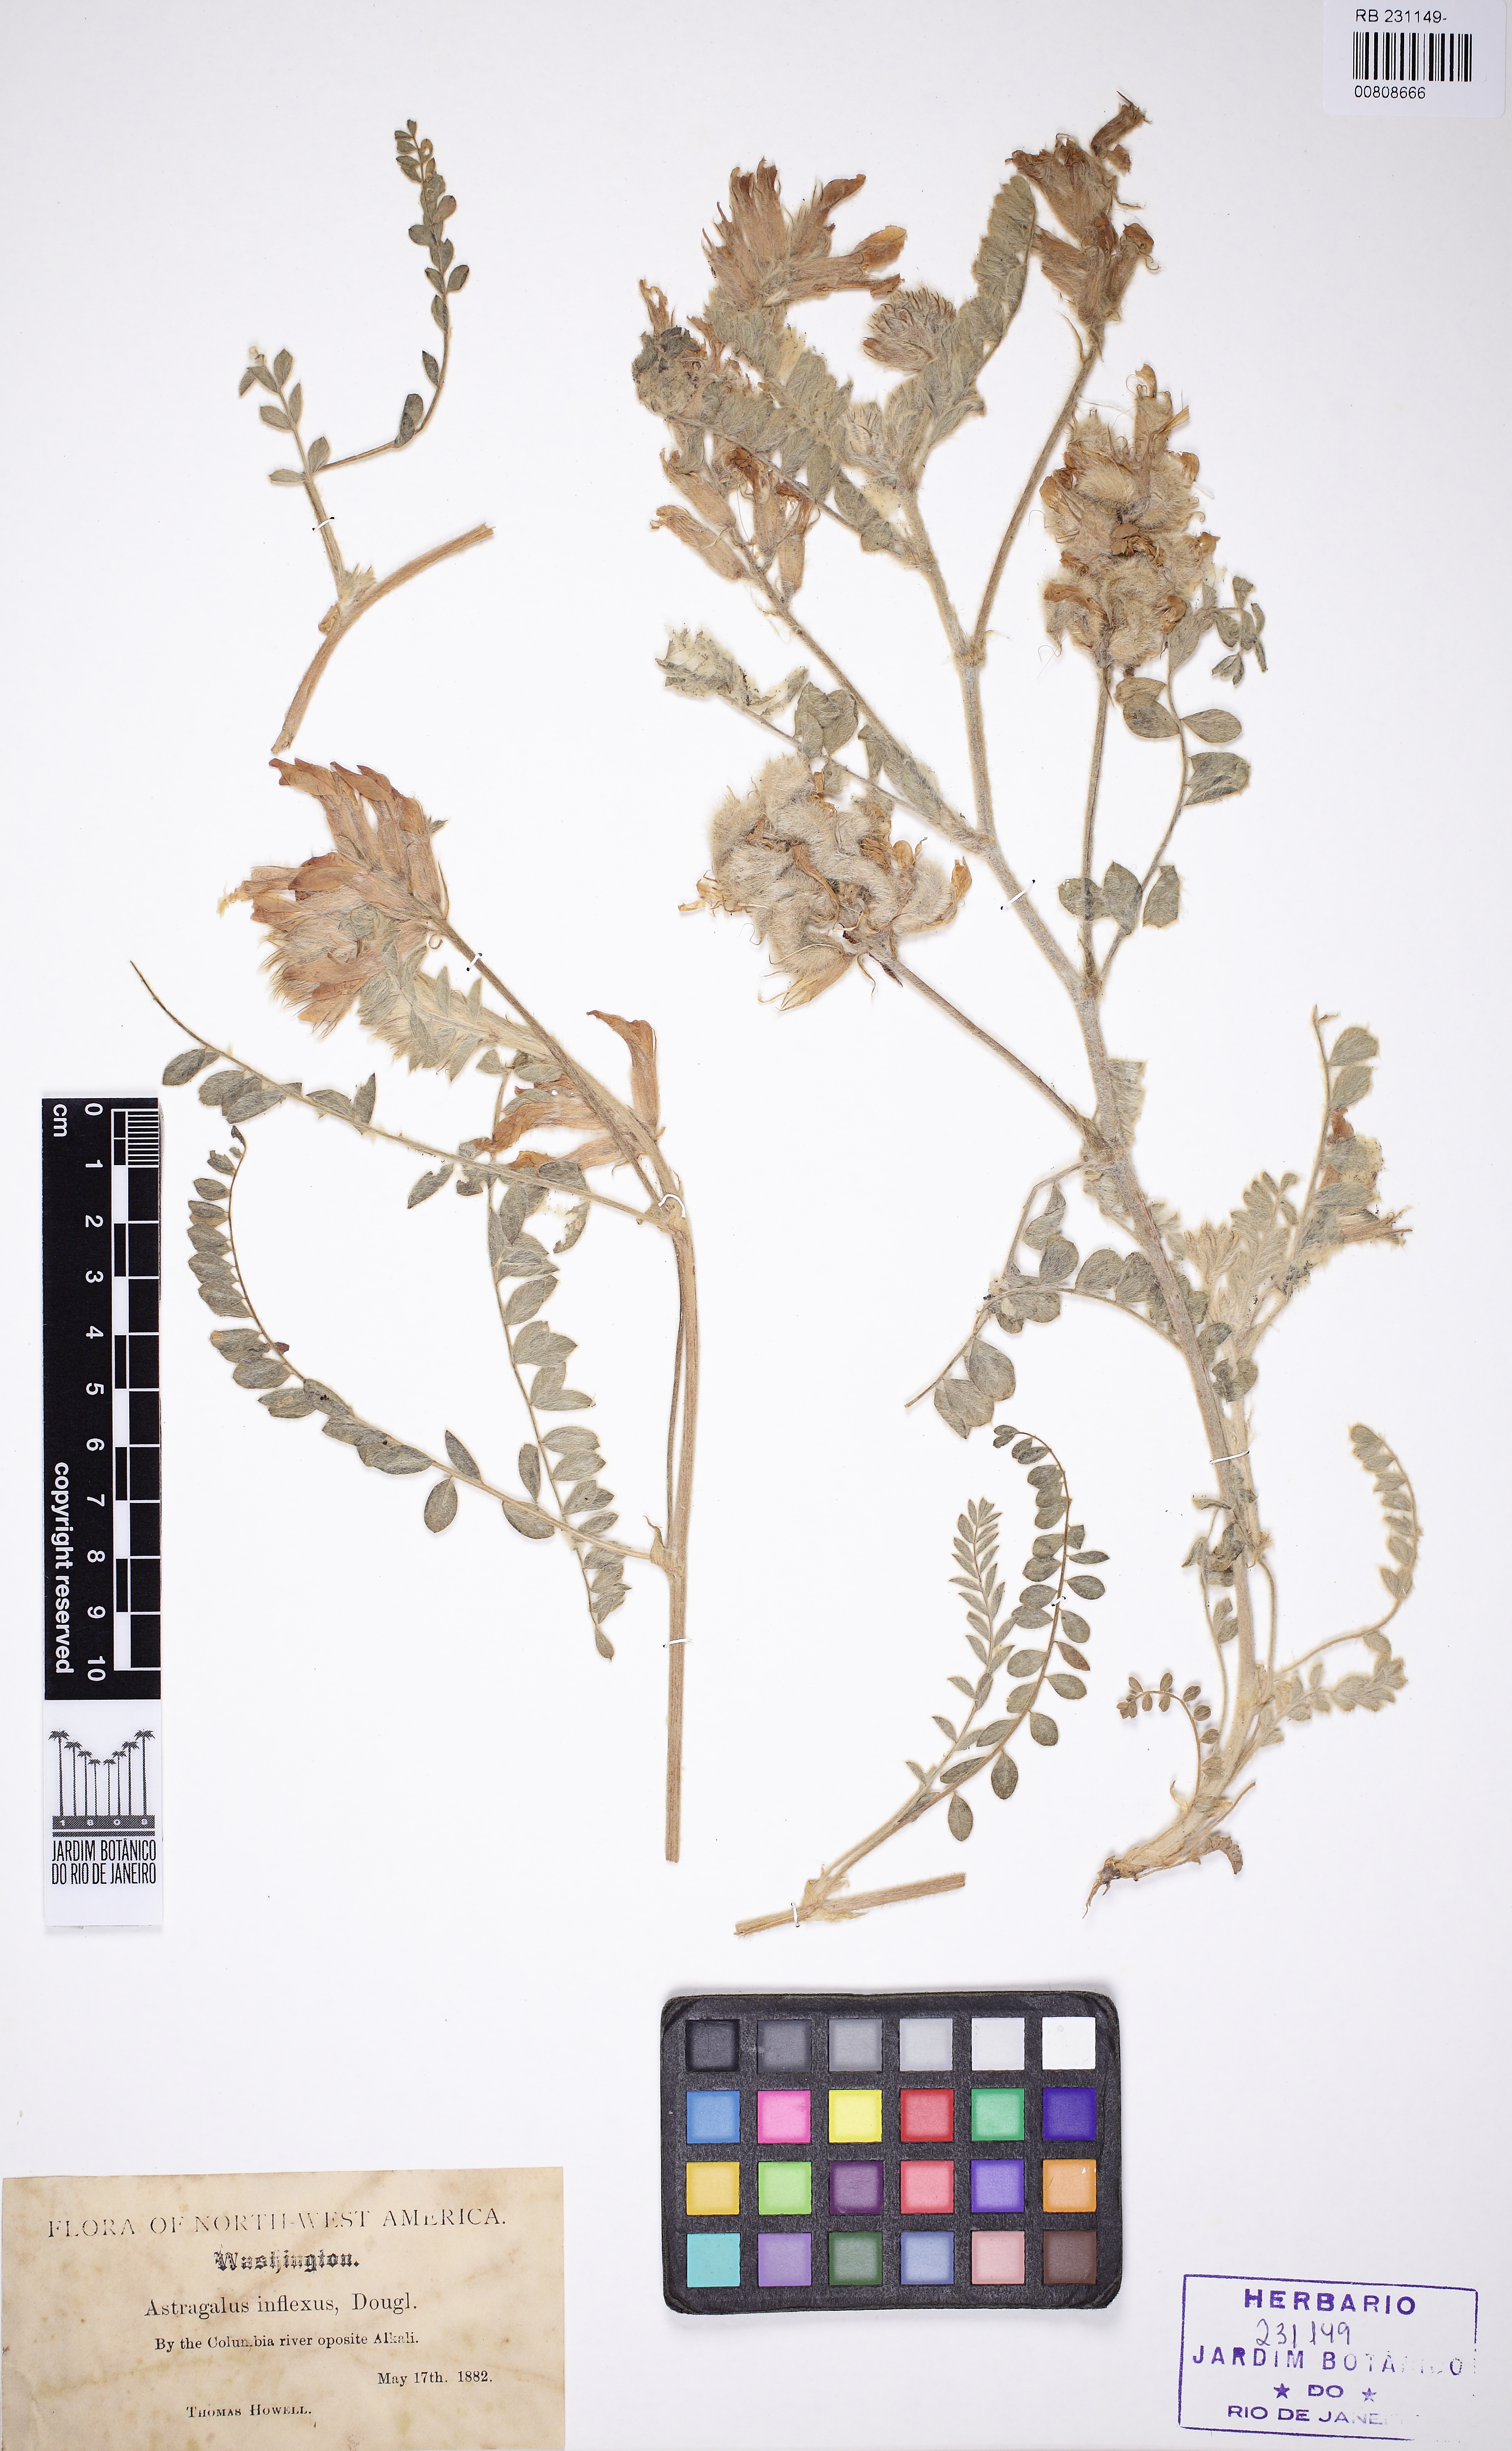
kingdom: Plantae
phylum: Tracheophyta
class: Magnoliopsida
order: Fabales
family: Fabaceae
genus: Astragalus
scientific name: Astragalus inflexus
